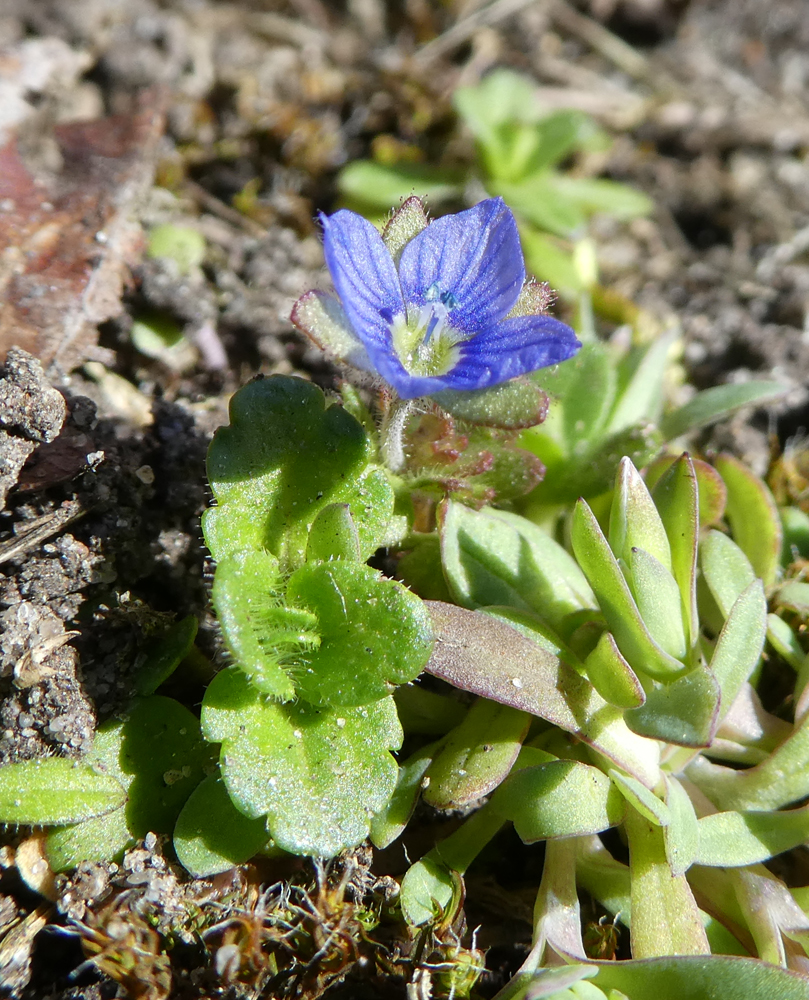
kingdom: Plantae
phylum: Tracheophyta
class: Magnoliopsida
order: Lamiales
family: Plantaginaceae
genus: Veronica
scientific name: Veronica triphyllos
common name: Fingered speedwell
